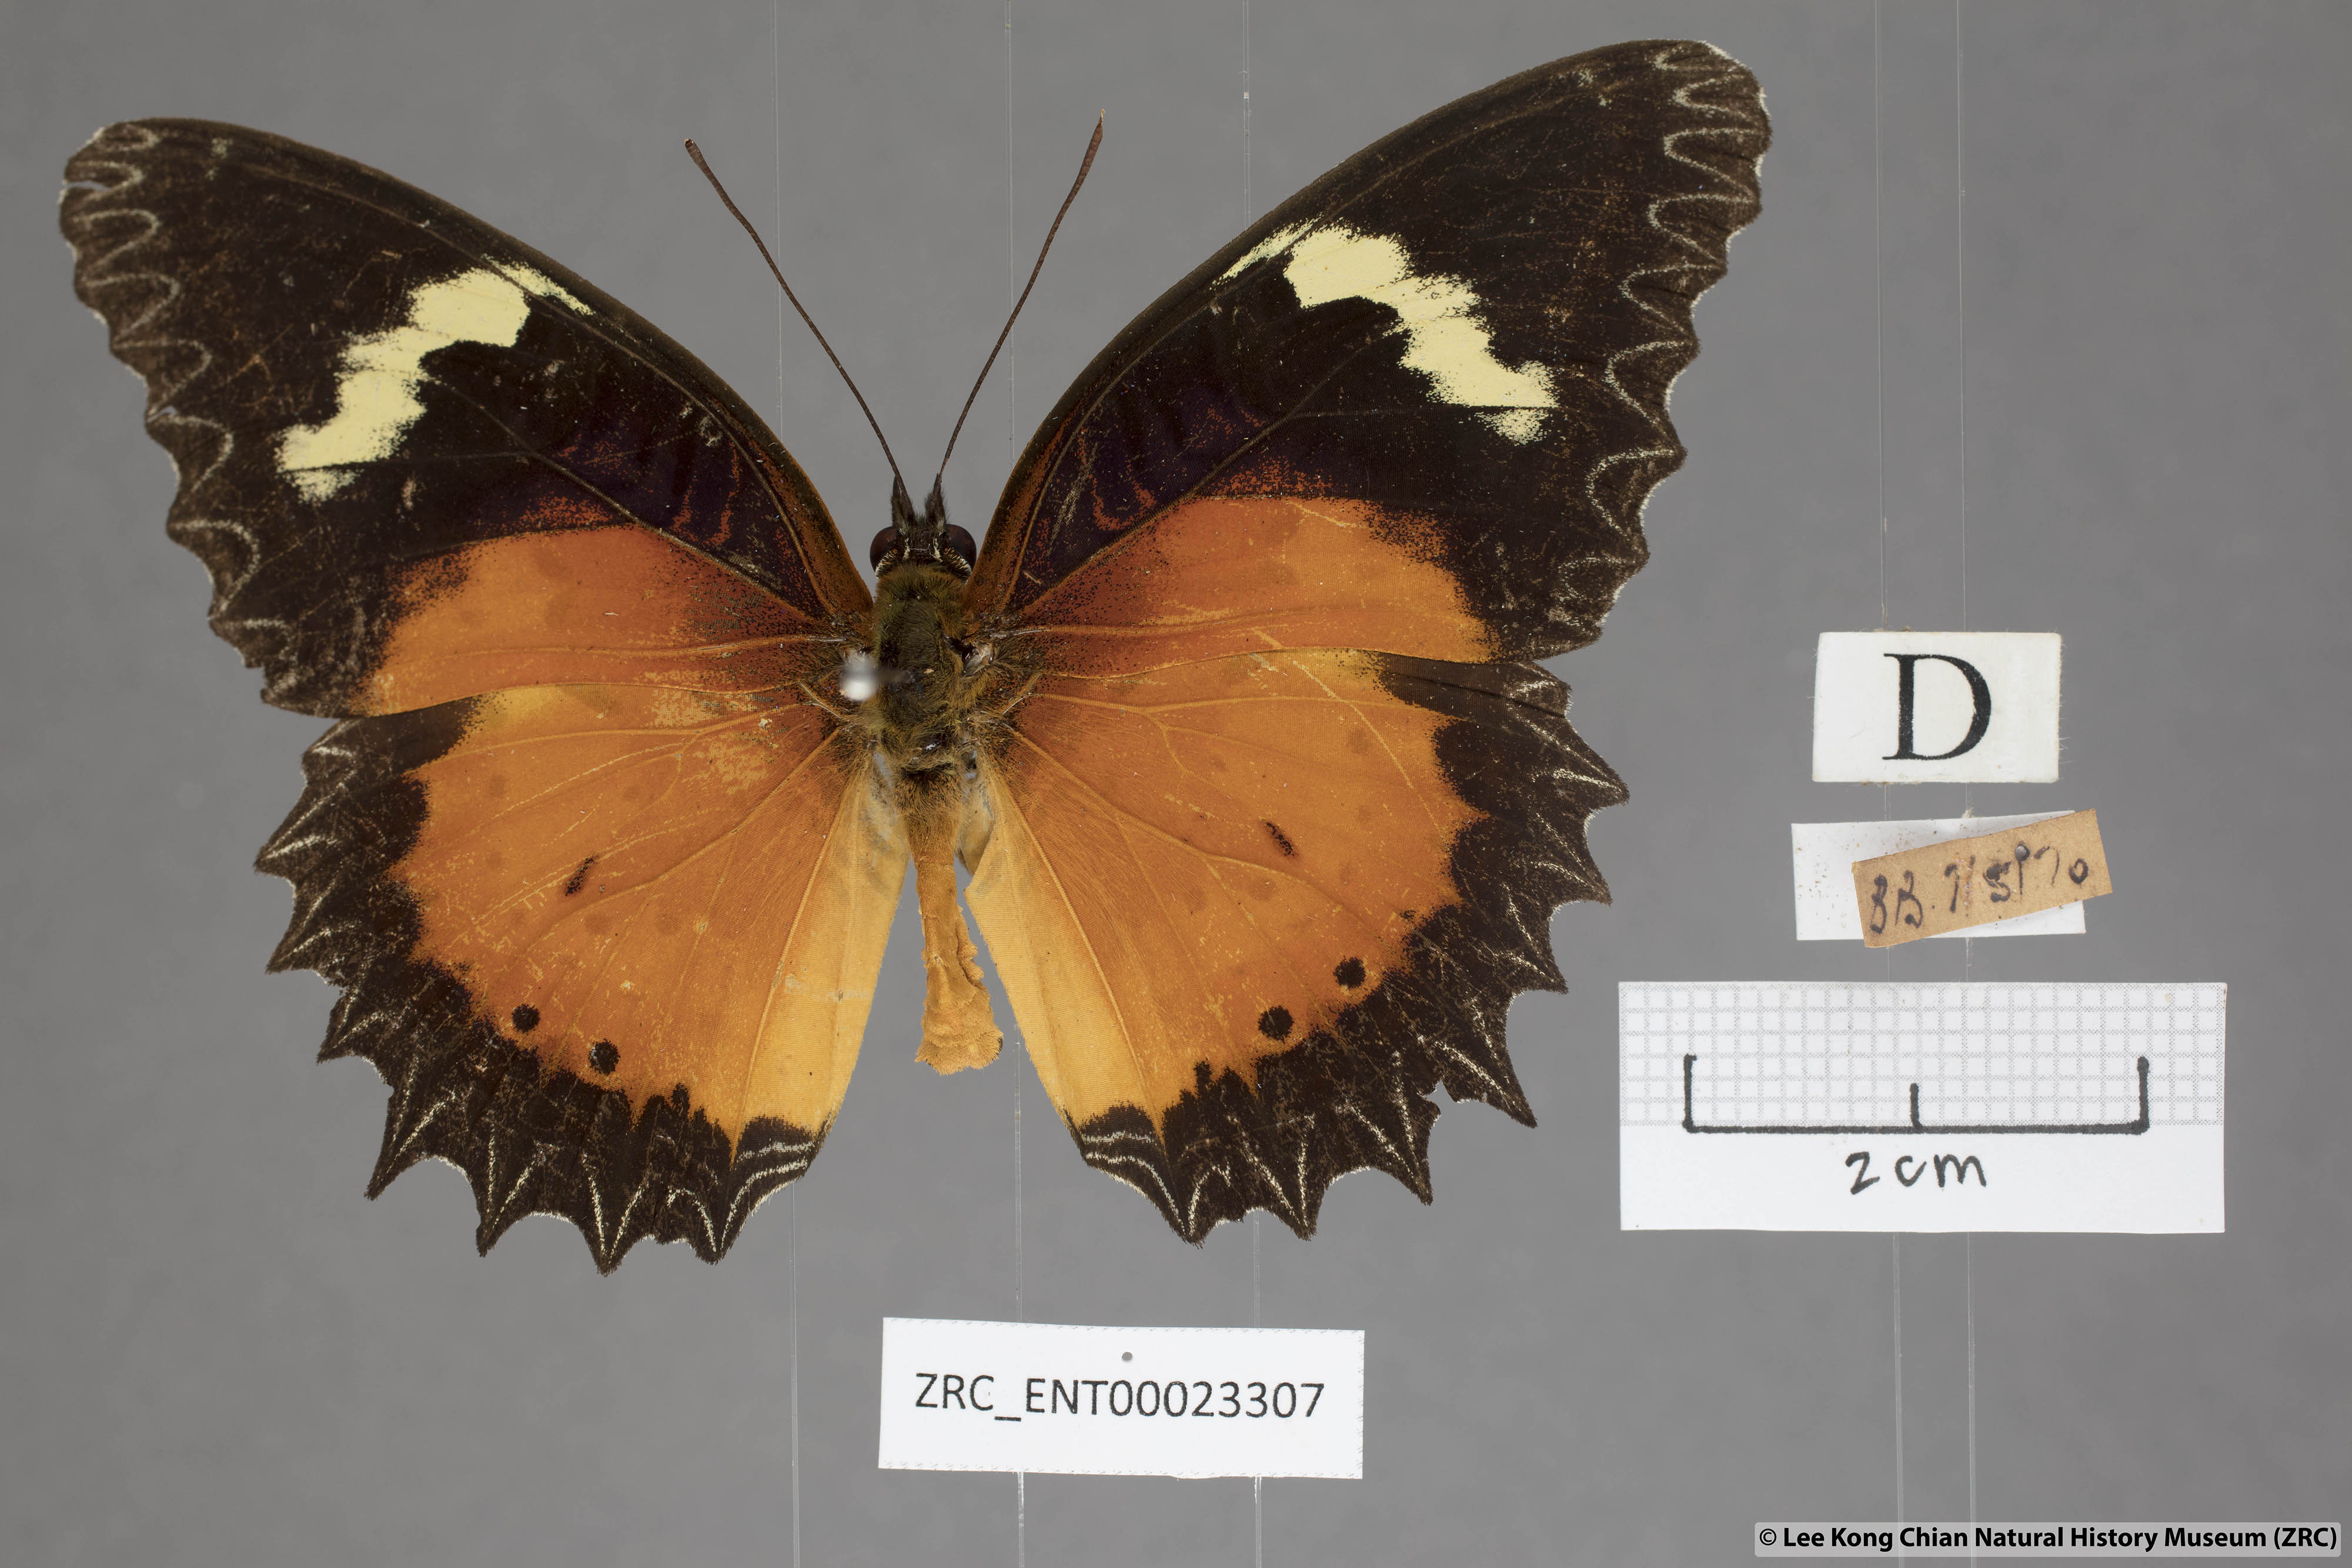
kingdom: Animalia
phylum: Arthropoda
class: Insecta
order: Lepidoptera
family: Nymphalidae
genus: Cethosia
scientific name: Cethosia hypsea
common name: Malayan lacewing butterfly
